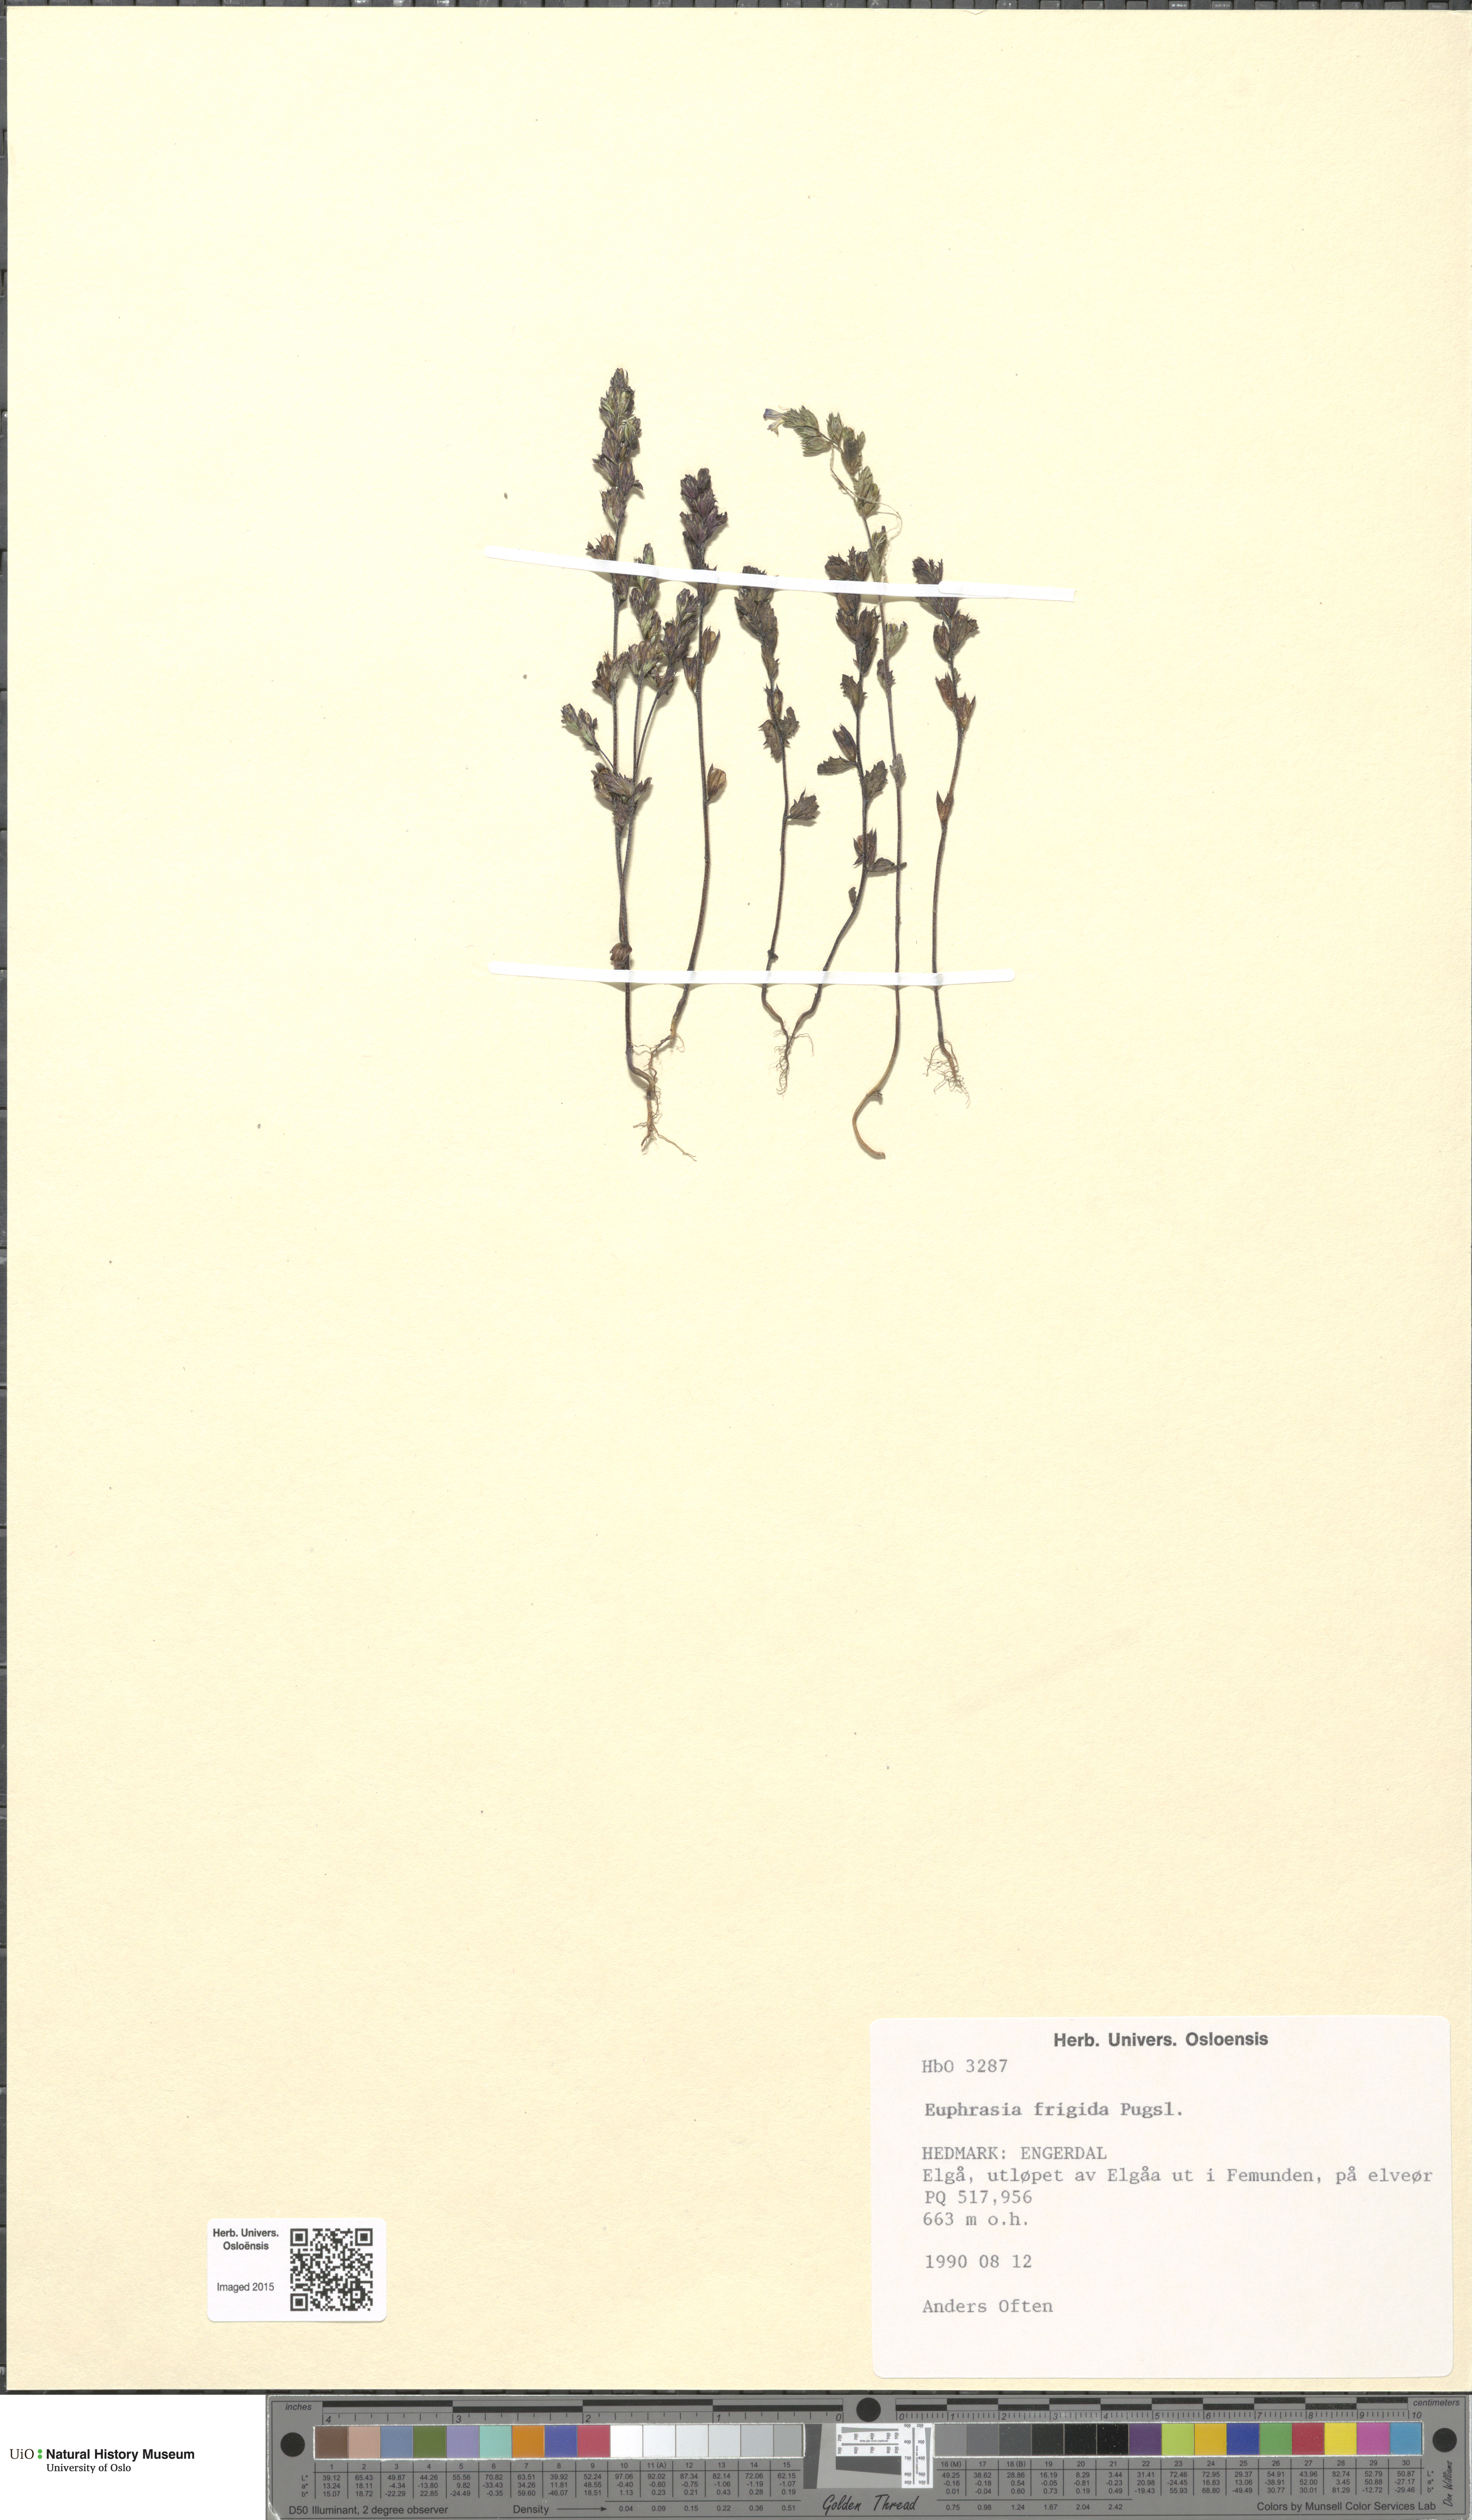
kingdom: Plantae
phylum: Tracheophyta
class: Magnoliopsida
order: Lamiales
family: Orobanchaceae
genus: Euphrasia
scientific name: Euphrasia frigida
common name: An eyebright
